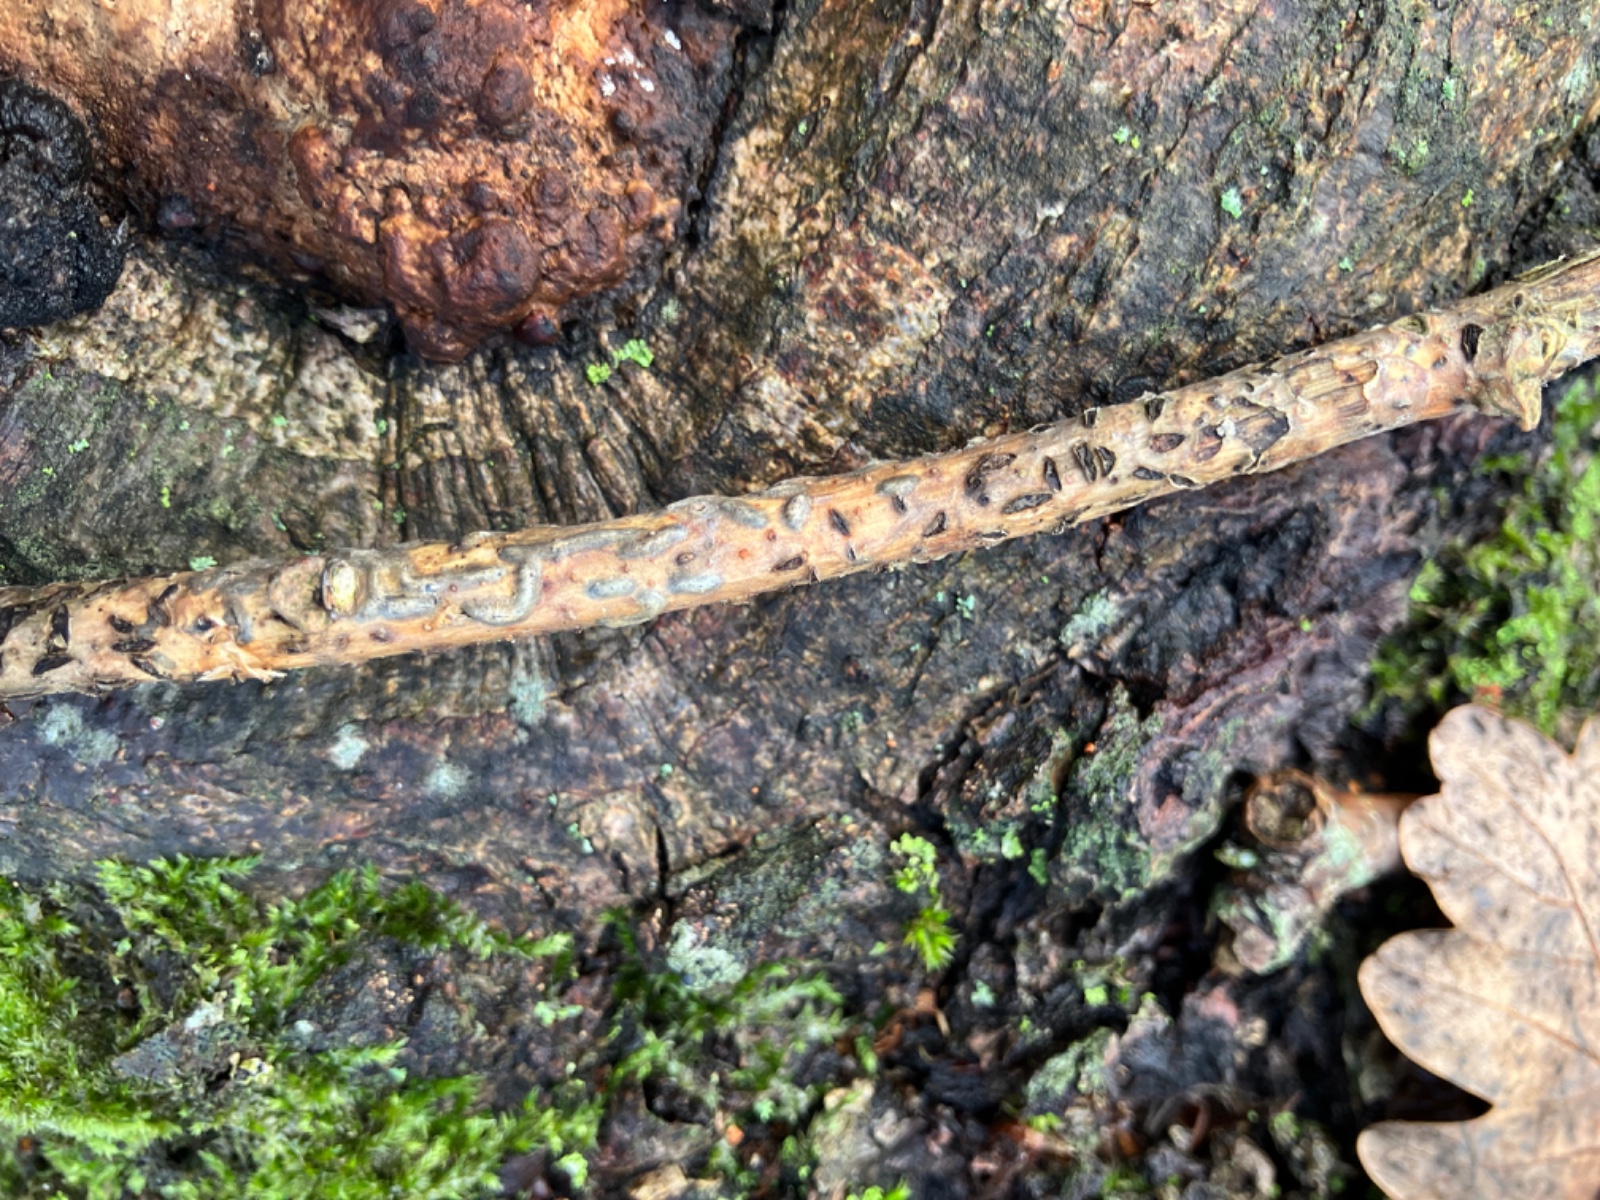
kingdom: Fungi
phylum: Ascomycota
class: Leotiomycetes
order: Rhytismatales
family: Rhytismataceae
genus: Colpoma
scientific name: Colpoma quercinum
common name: ege-sprækkeskive
